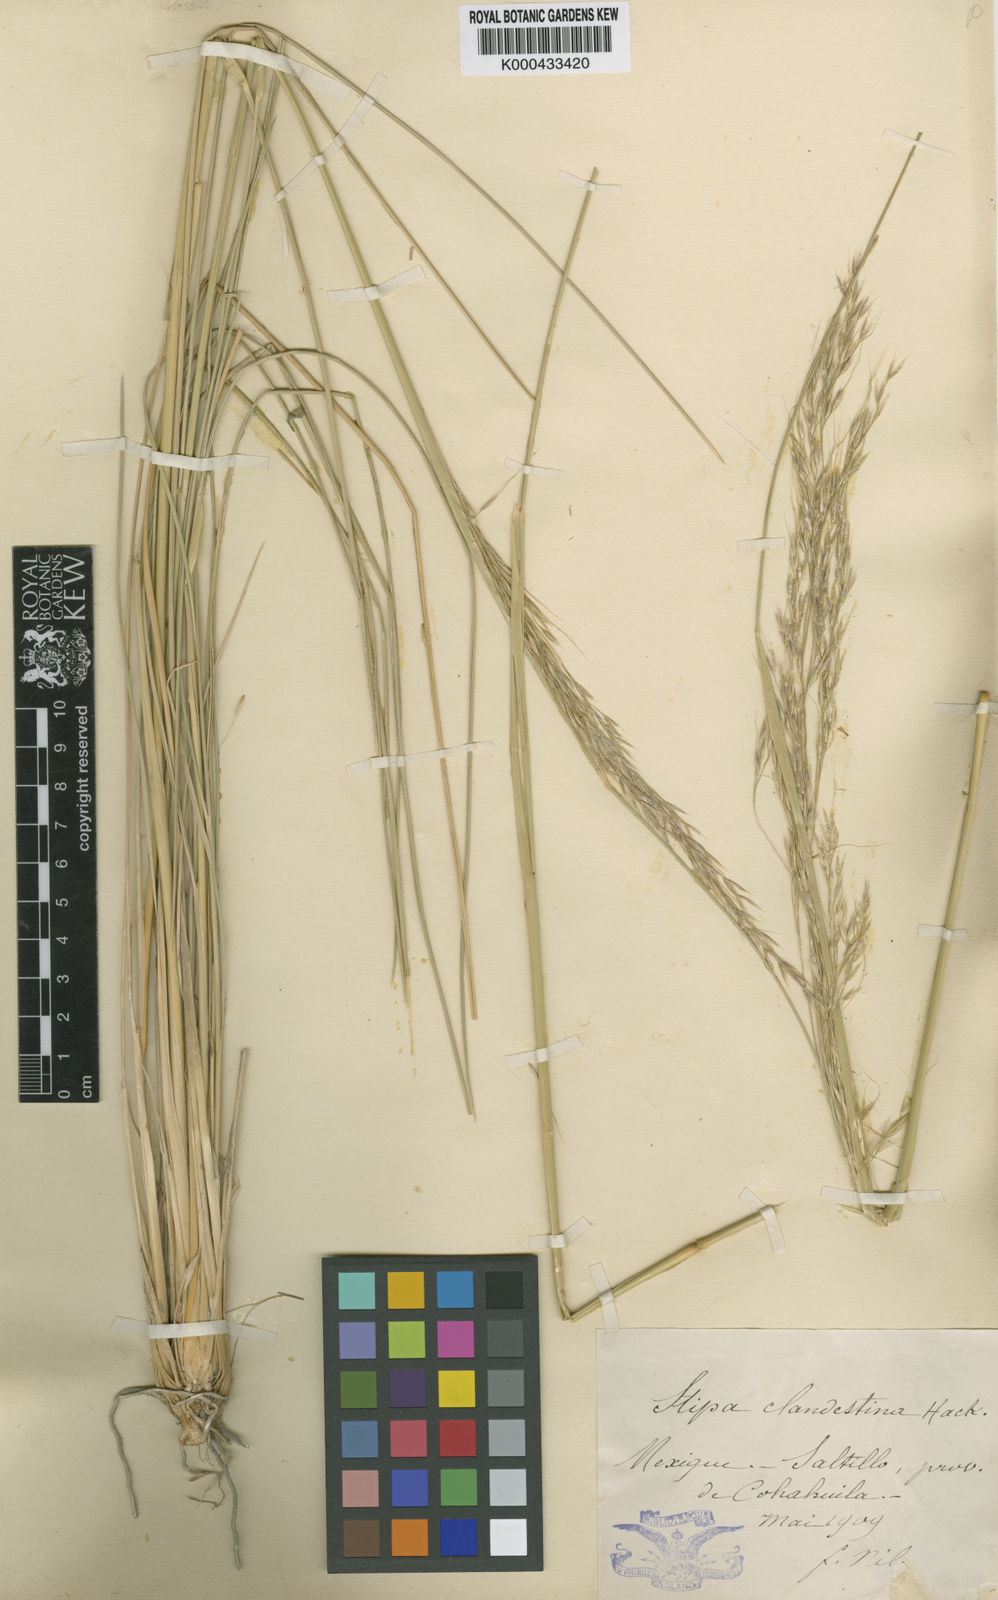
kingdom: Plantae
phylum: Tracheophyta
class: Liliopsida
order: Poales
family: Poaceae
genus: Amelichloa
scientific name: Amelichloa clandestina
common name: Mexican ricegrass
